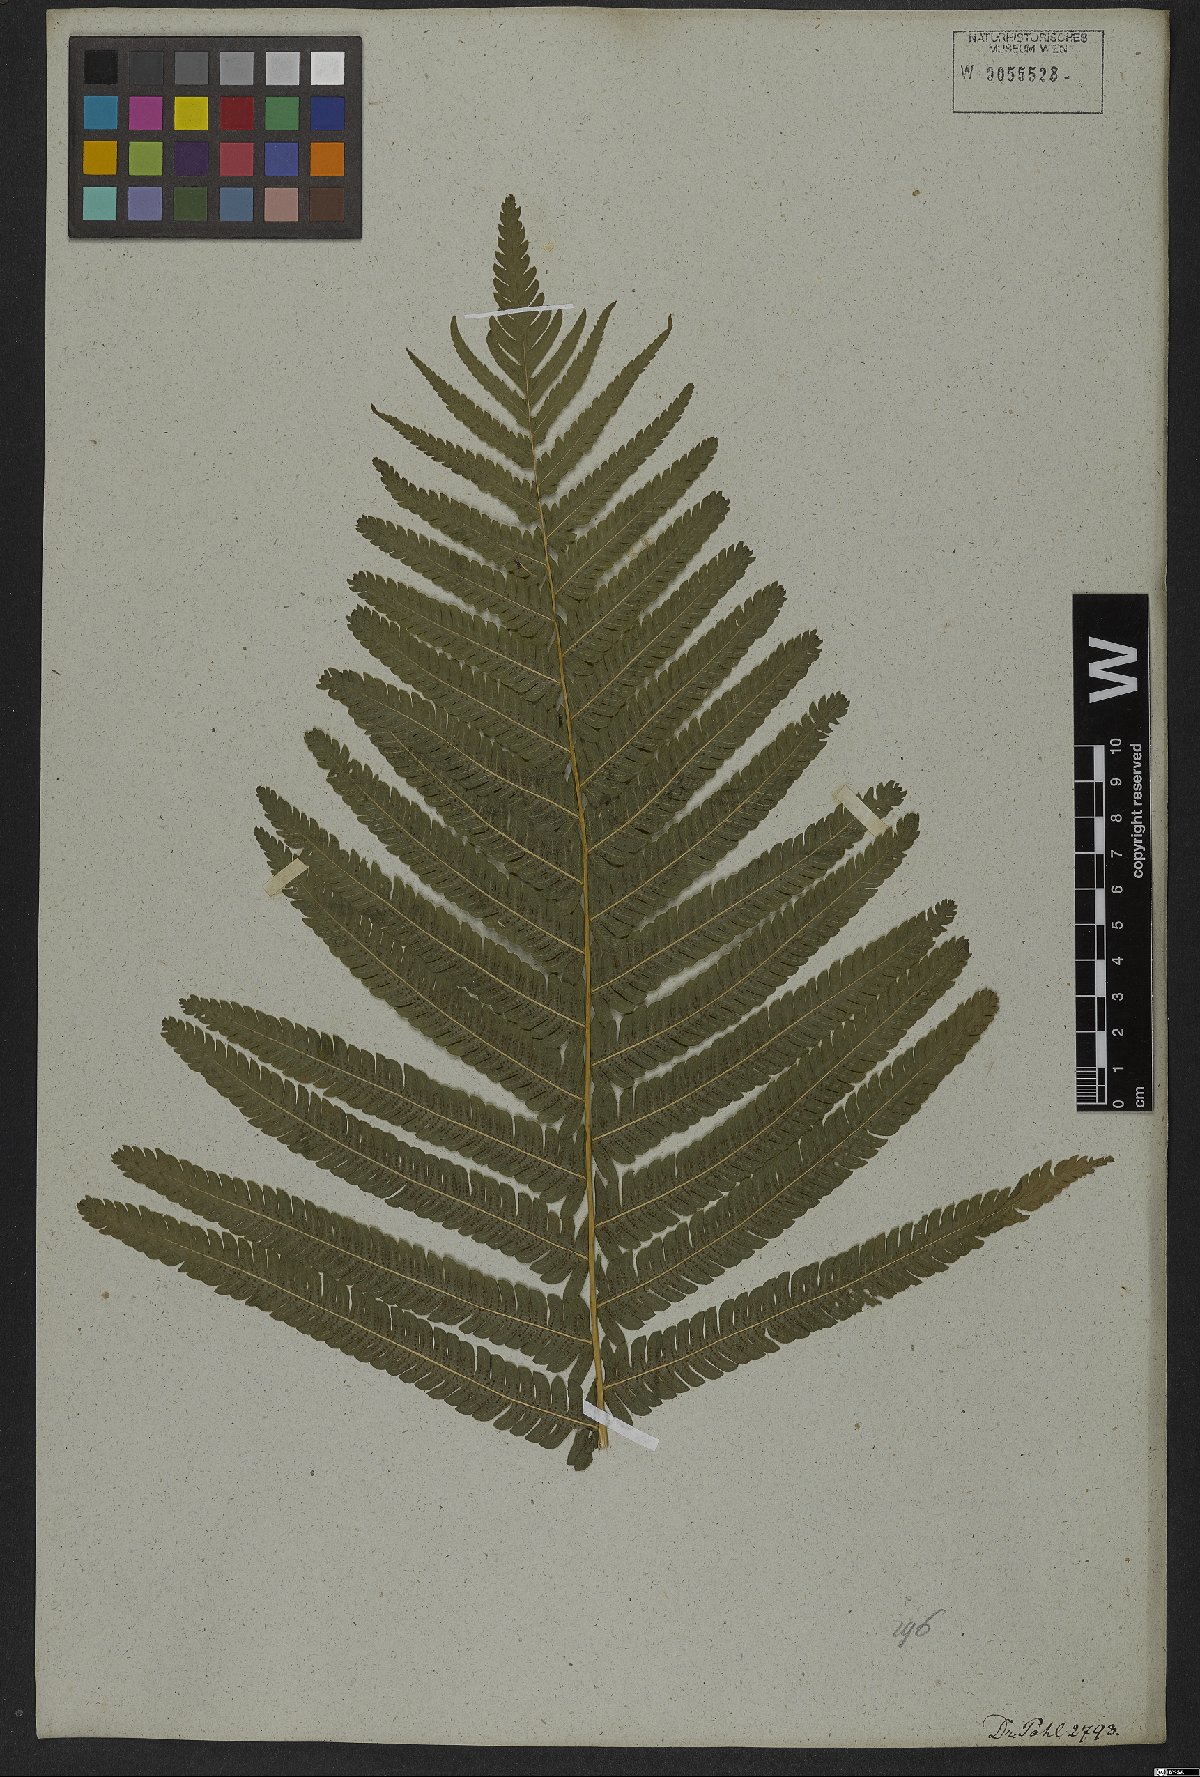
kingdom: Plantae
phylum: Tracheophyta
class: Polypodiopsida
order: Polypodiales
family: Thelypteridaceae
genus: Pelazoneuron
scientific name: Pelazoneuron patens
